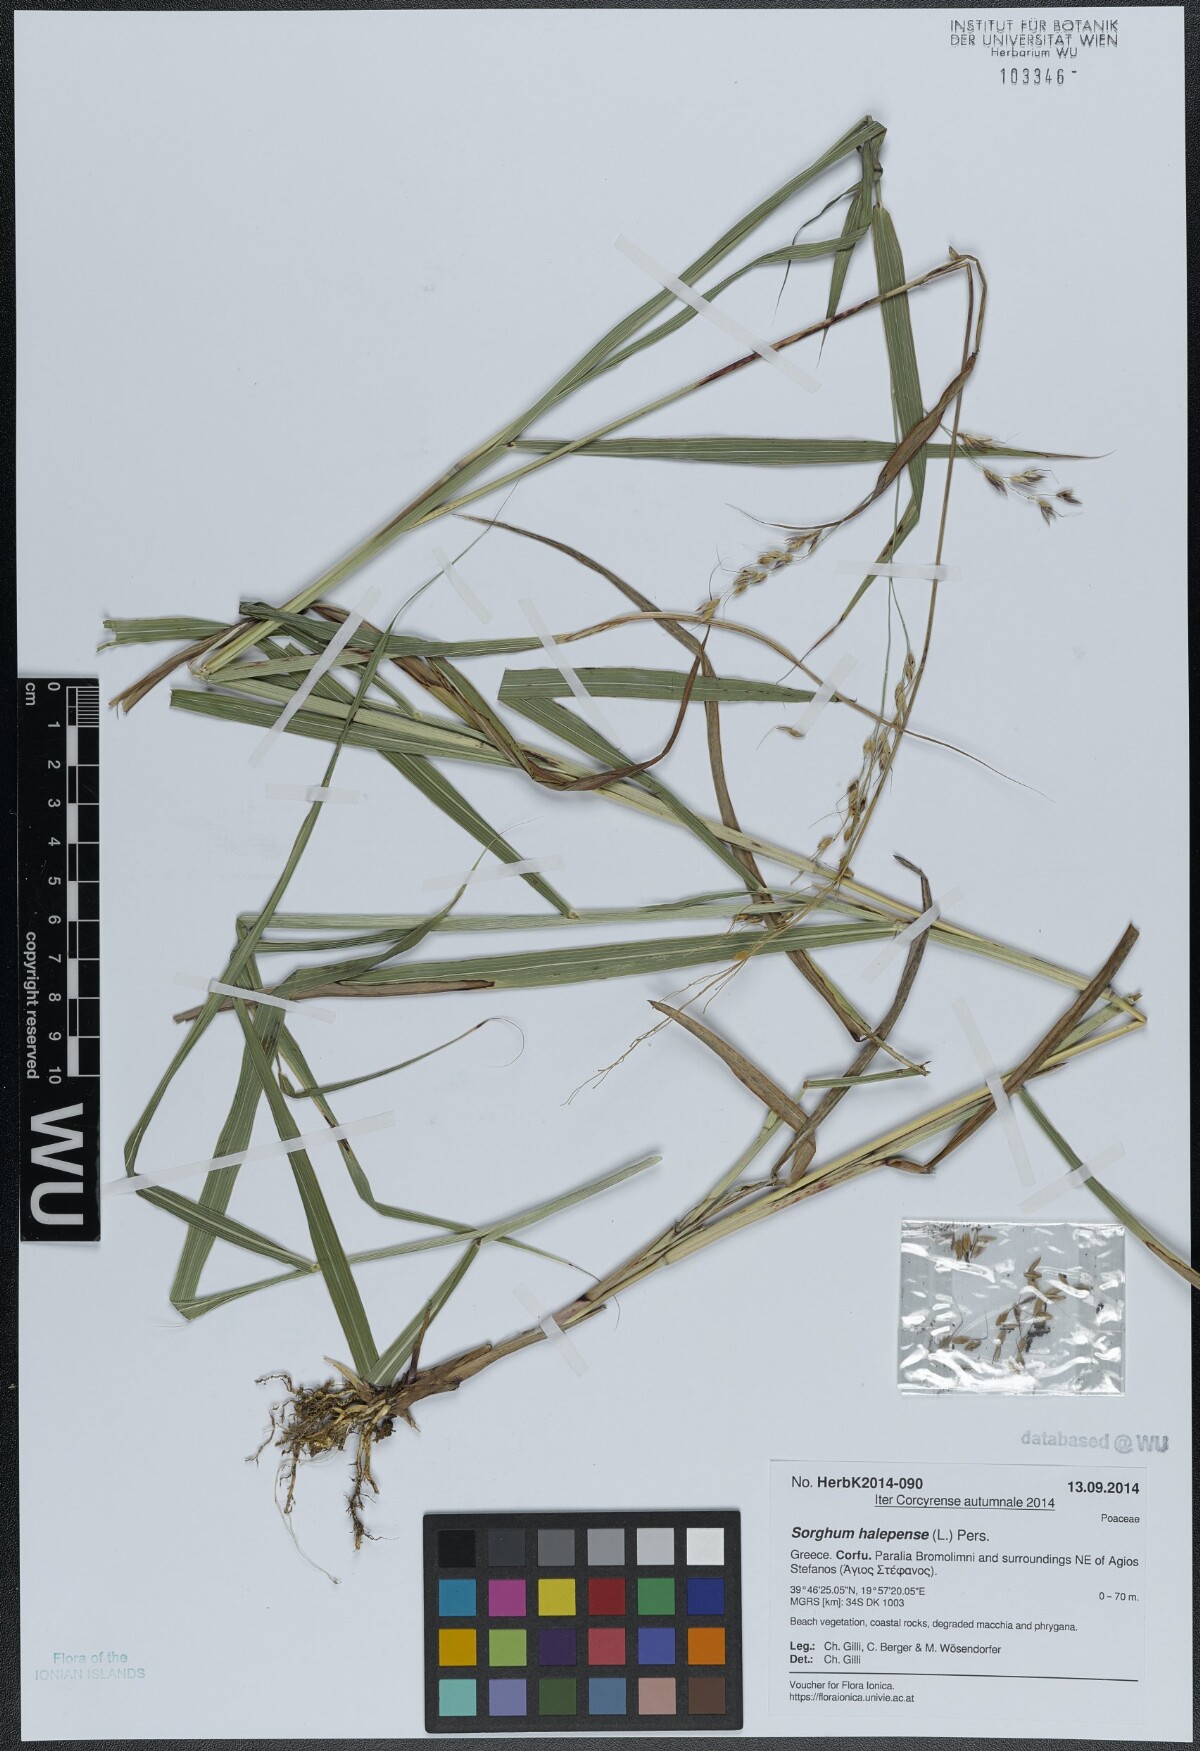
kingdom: Plantae
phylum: Tracheophyta
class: Liliopsida
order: Poales
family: Poaceae
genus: Sorghum
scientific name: Sorghum halepense
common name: Johnson-grass
